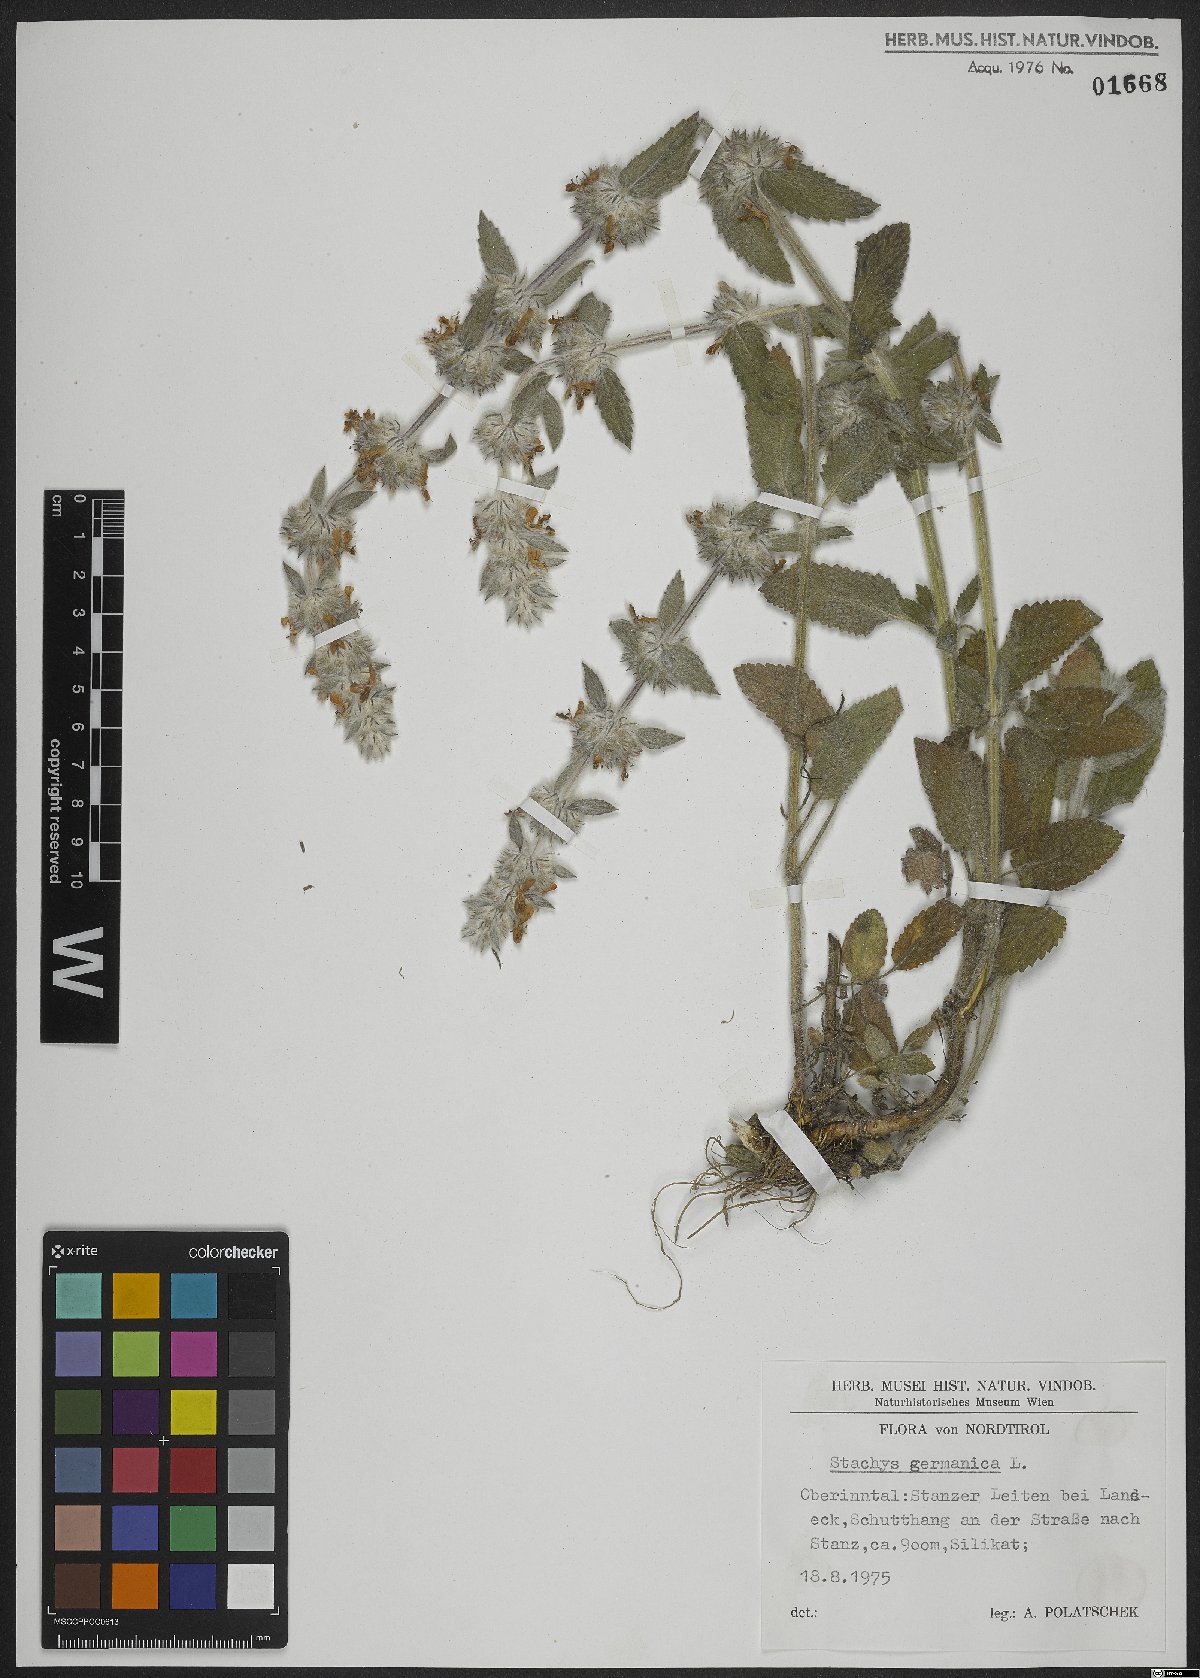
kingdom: Plantae
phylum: Tracheophyta
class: Magnoliopsida
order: Lamiales
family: Lamiaceae
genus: Stachys
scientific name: Stachys germanica
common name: Downy woundwort
